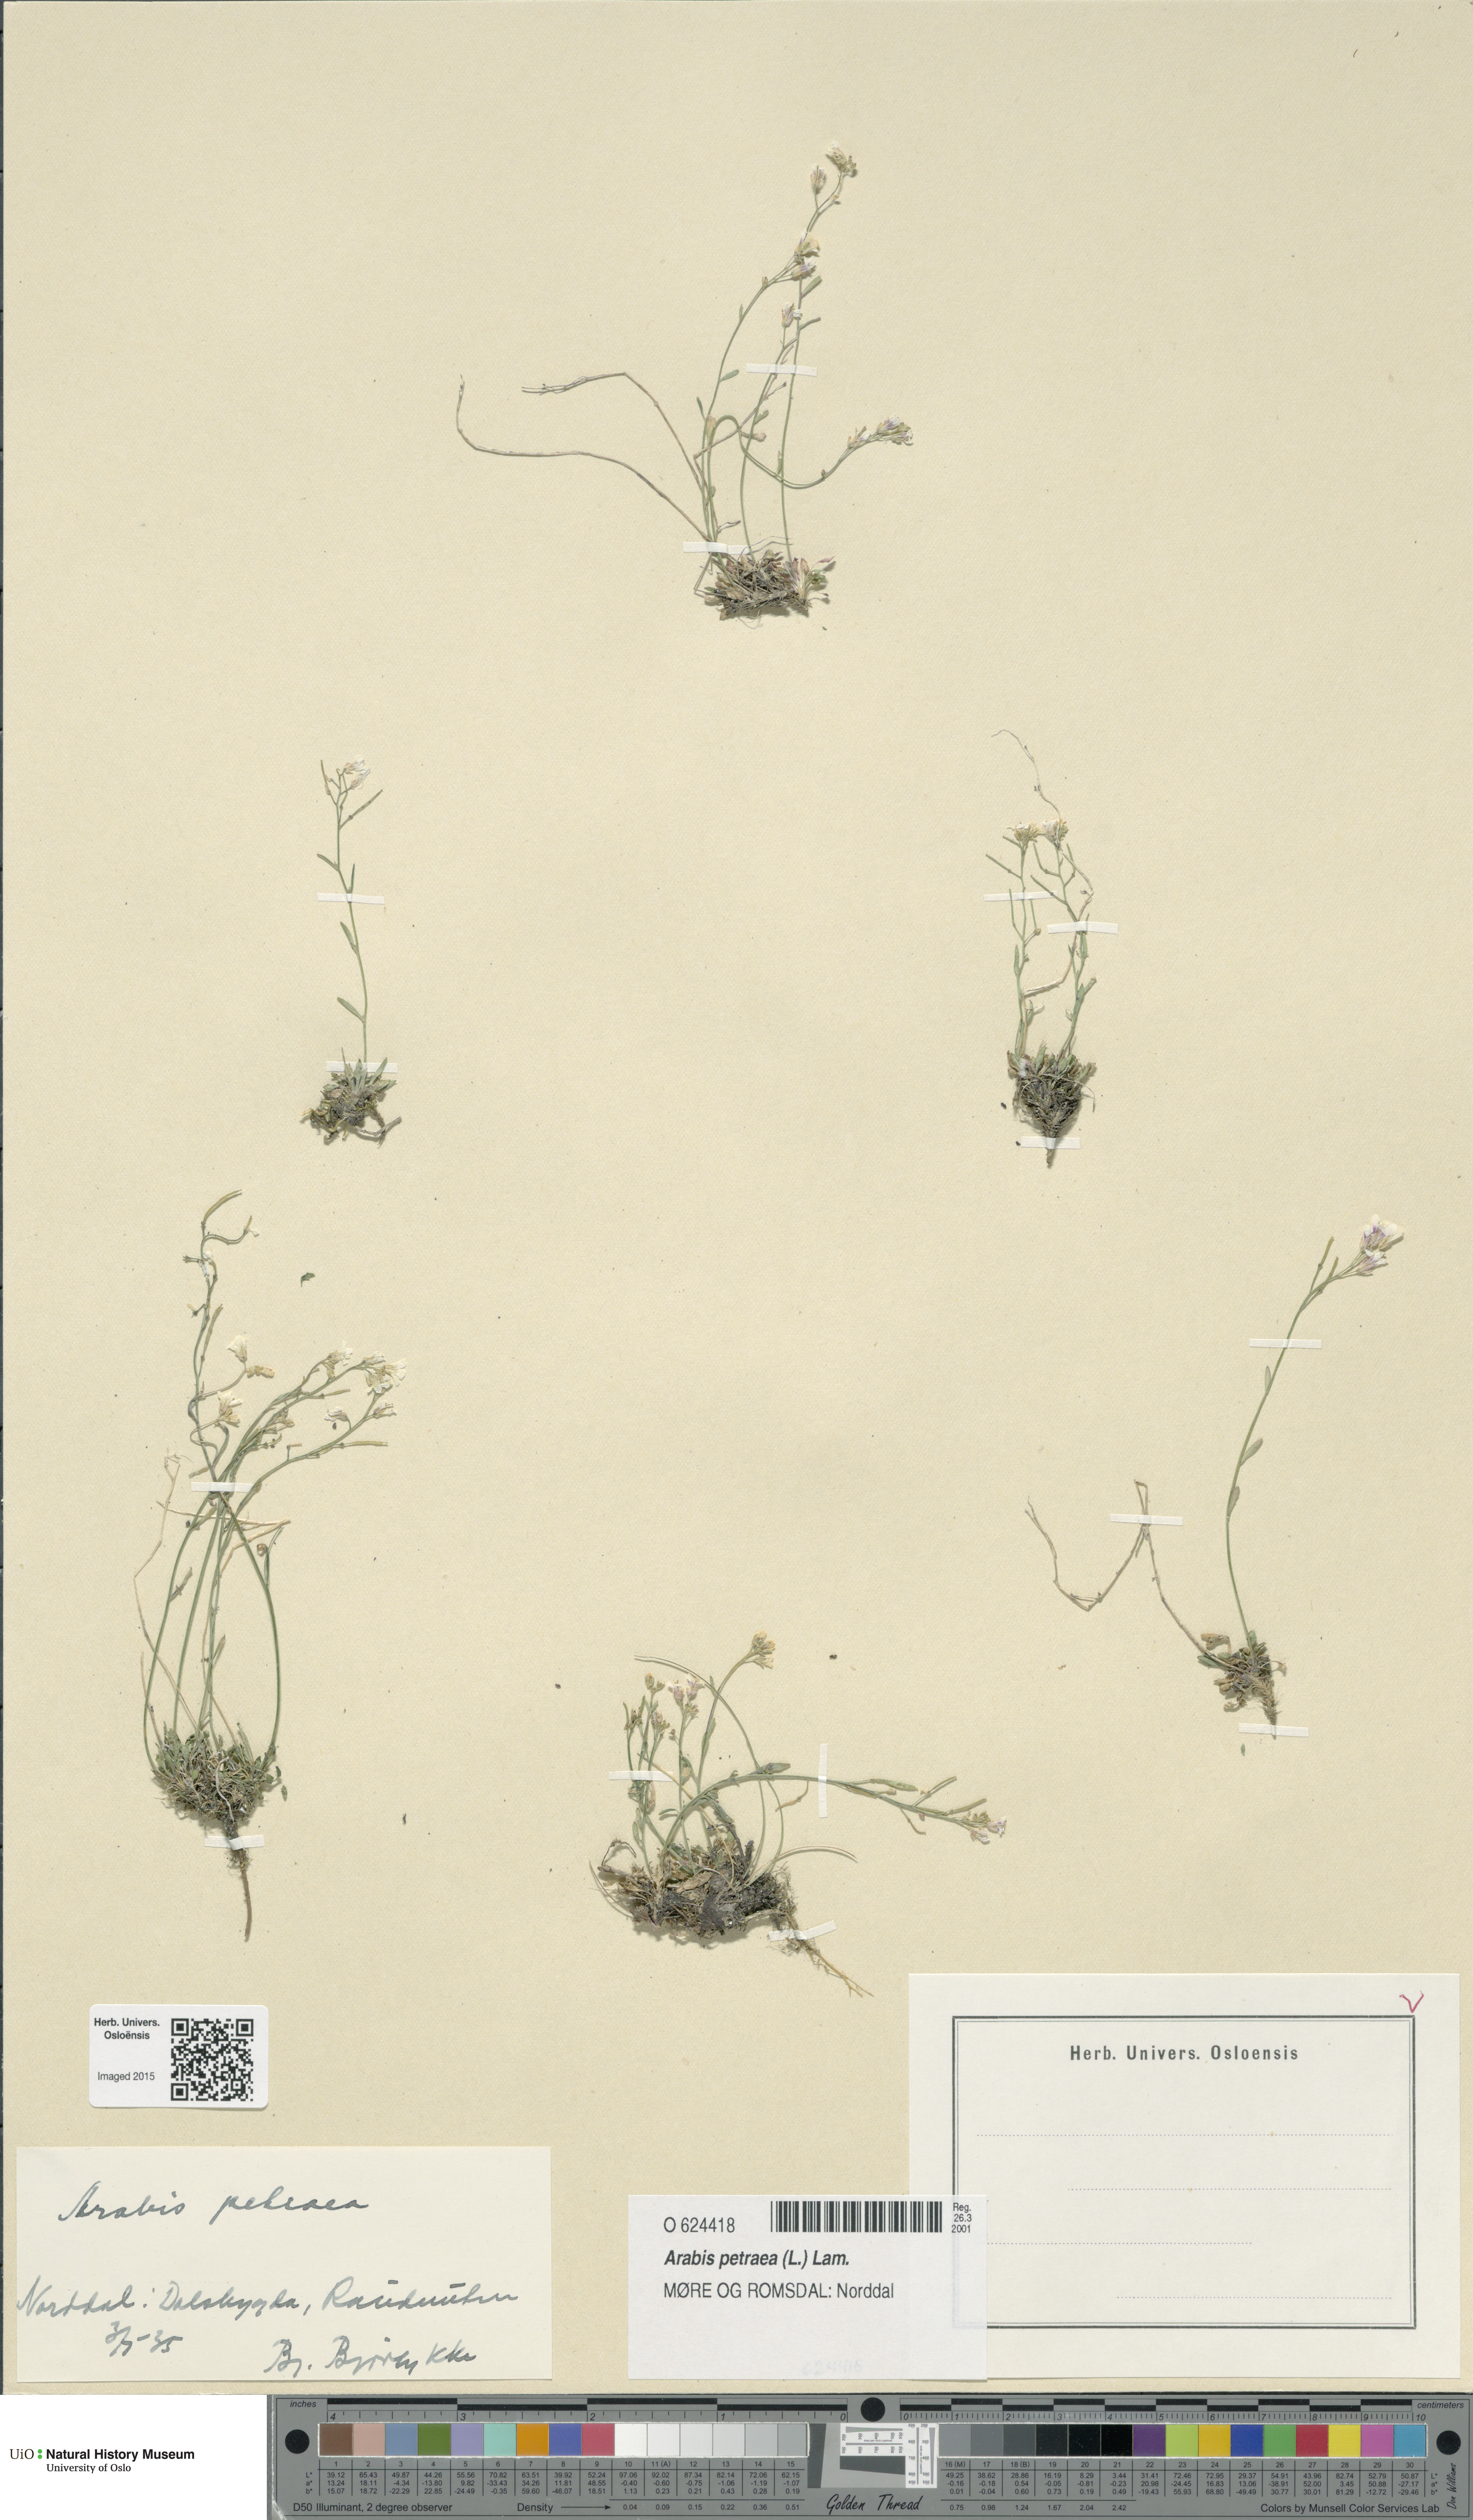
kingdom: Plantae
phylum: Tracheophyta
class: Magnoliopsida
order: Brassicales
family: Brassicaceae
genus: Arabidopsis
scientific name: Arabidopsis petraea
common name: Northern rock-cress
